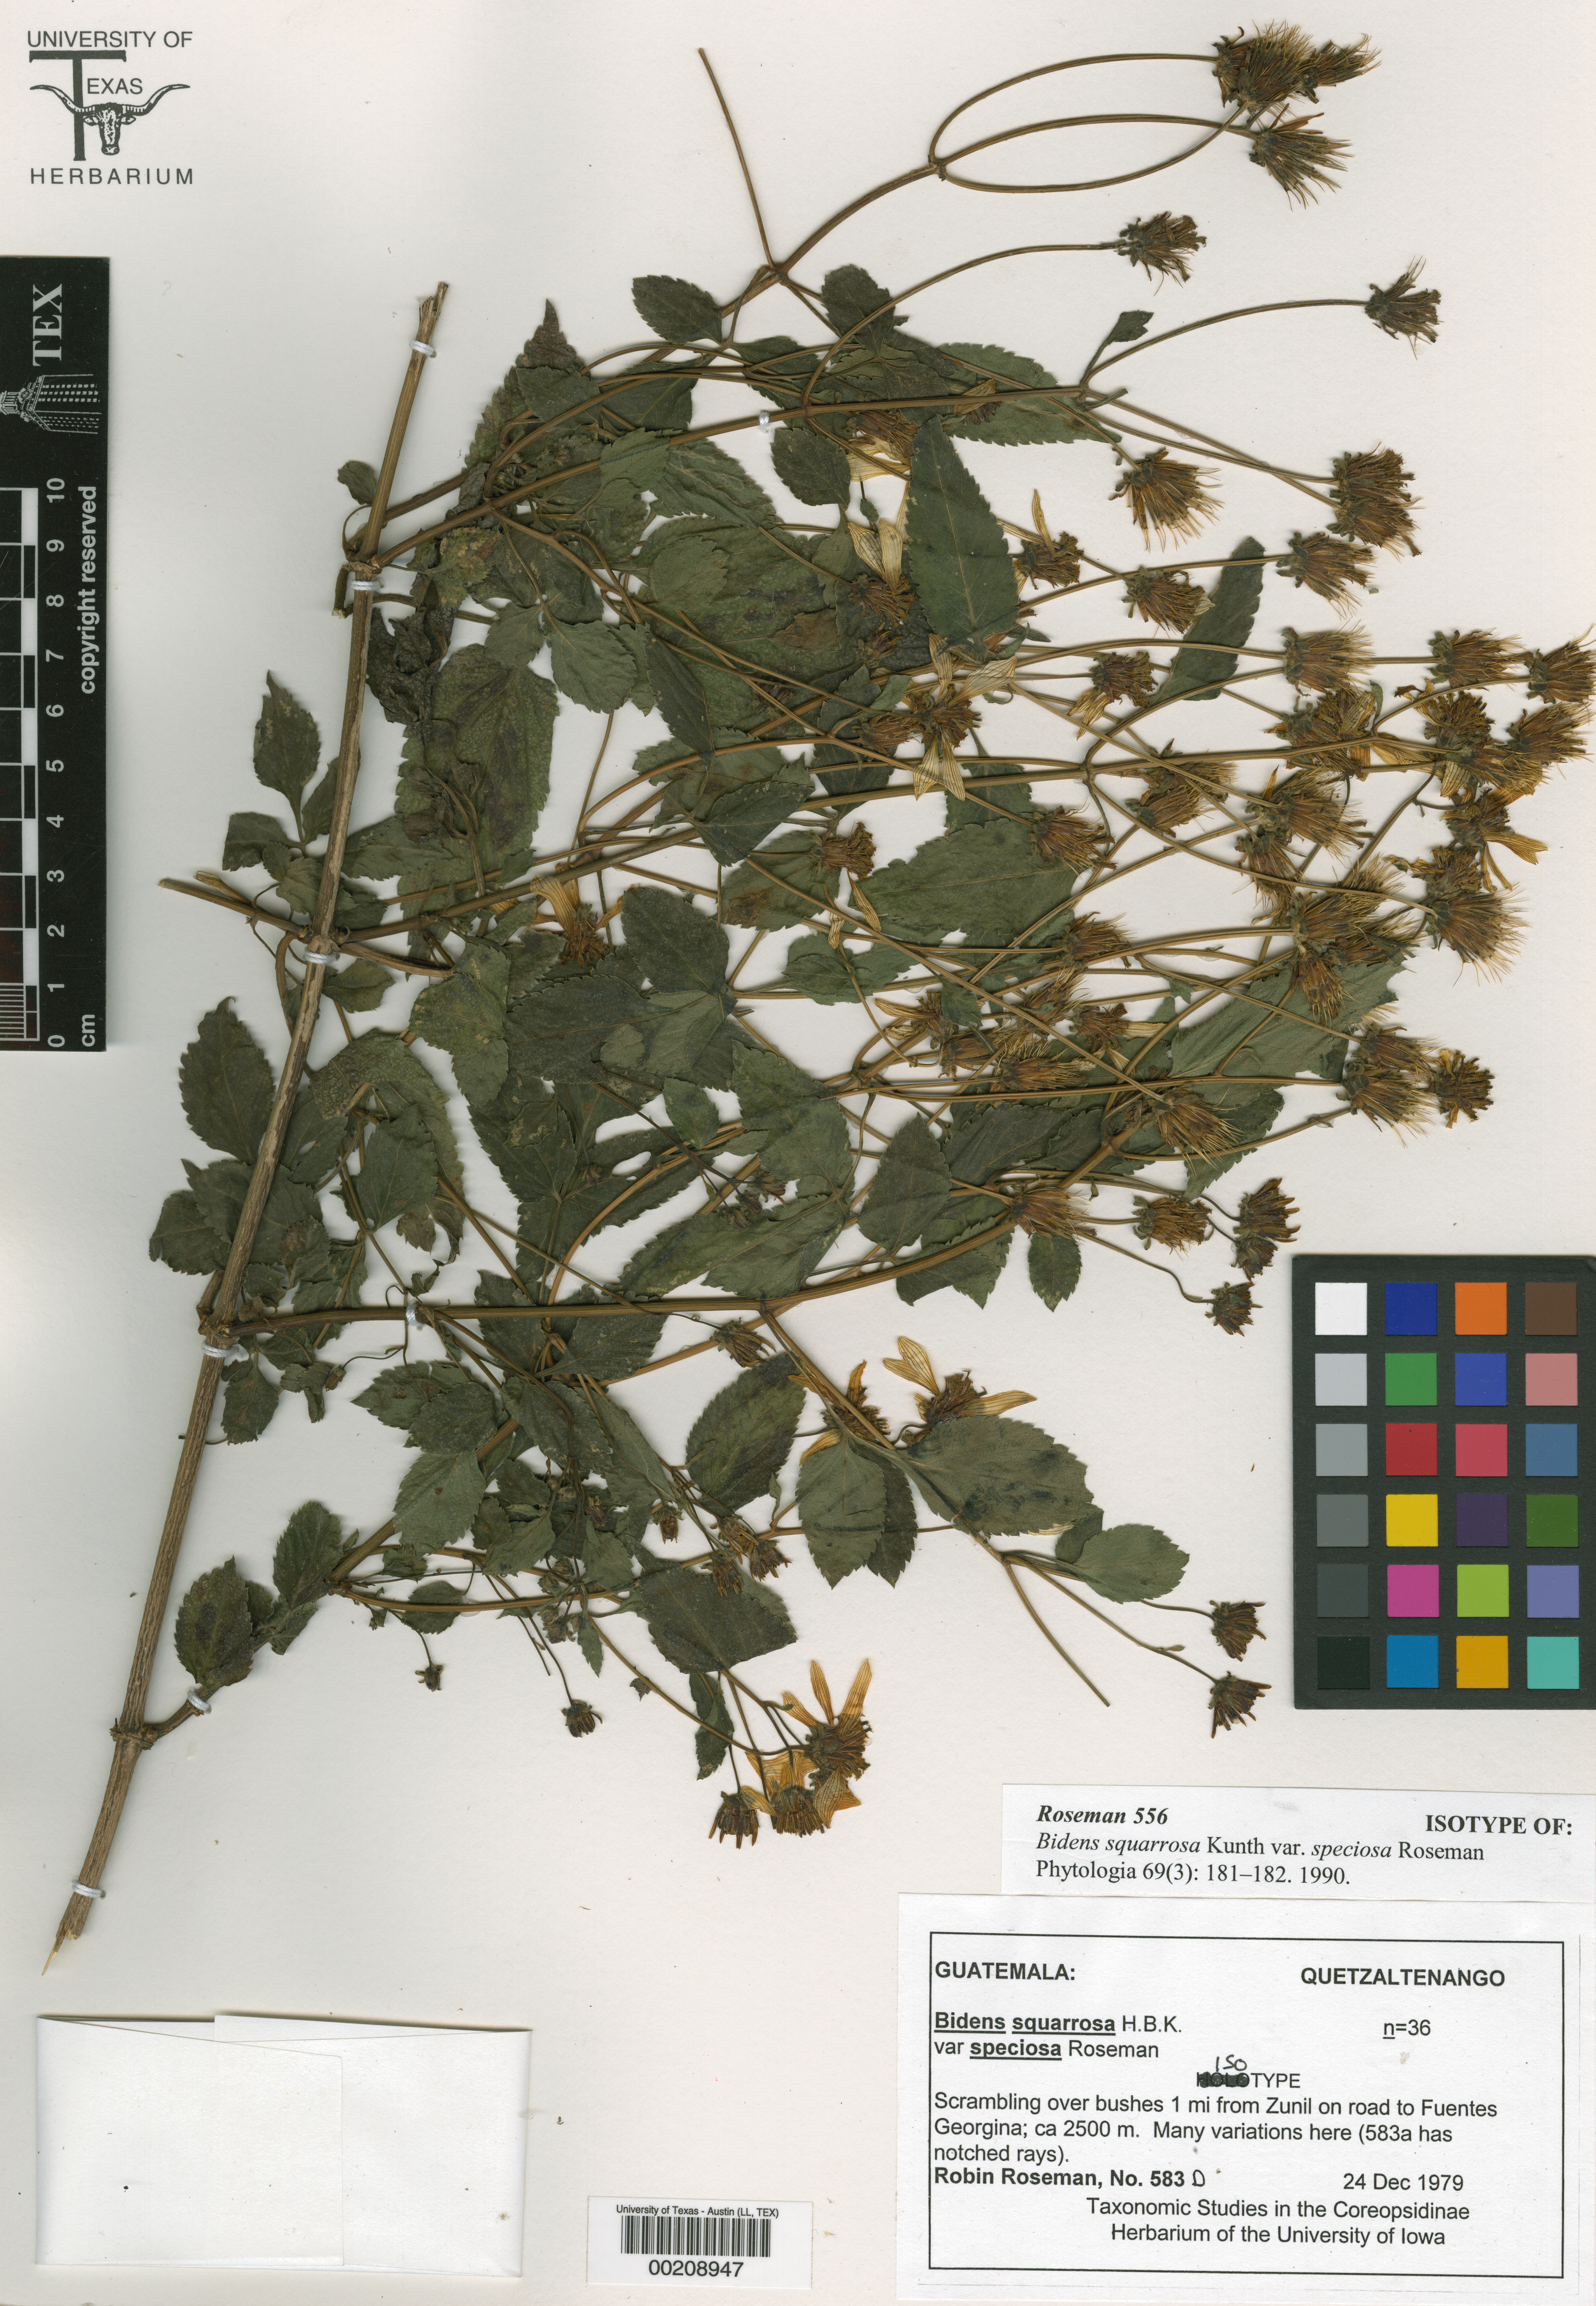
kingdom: Plantae
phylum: Tracheophyta
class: Magnoliopsida
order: Asterales
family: Asteraceae
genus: Bidens
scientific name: Bidens
